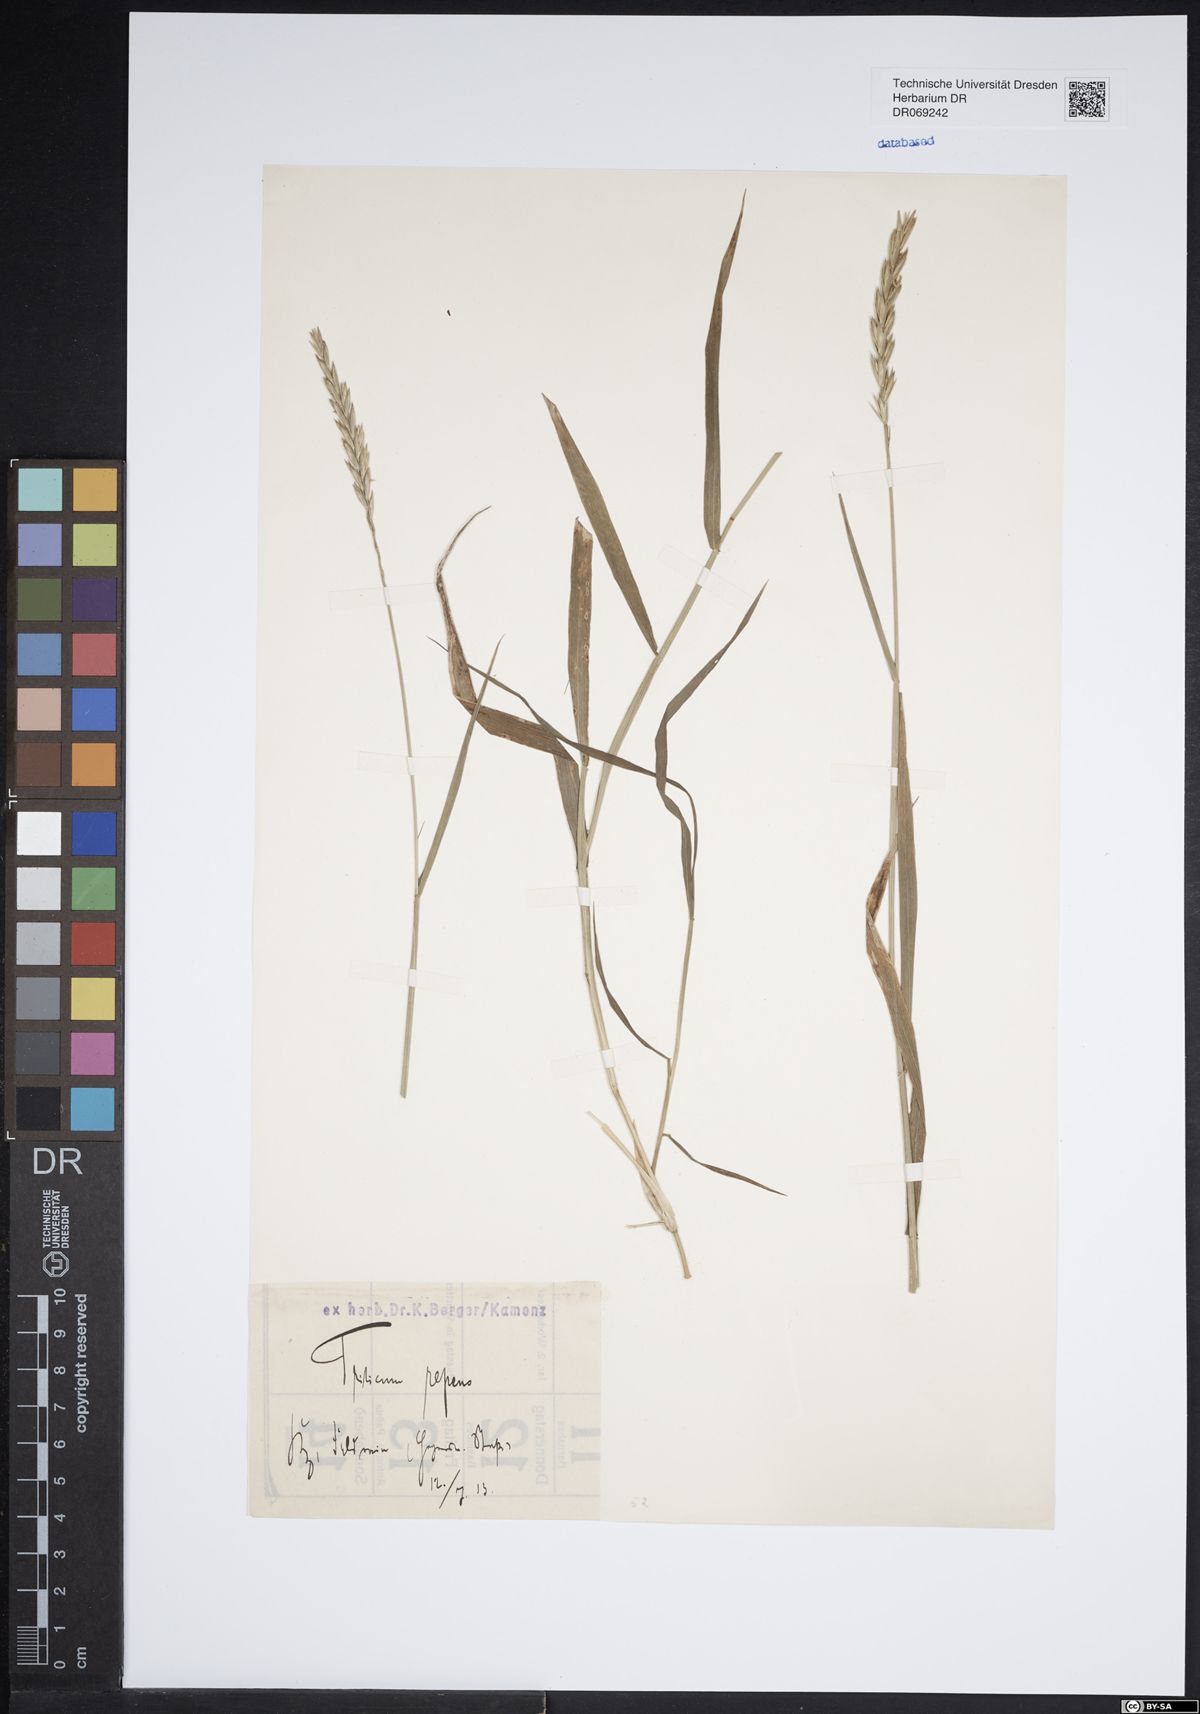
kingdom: Plantae
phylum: Tracheophyta
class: Liliopsida
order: Poales
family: Poaceae
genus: Elymus
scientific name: Elymus repens
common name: Quackgrass
